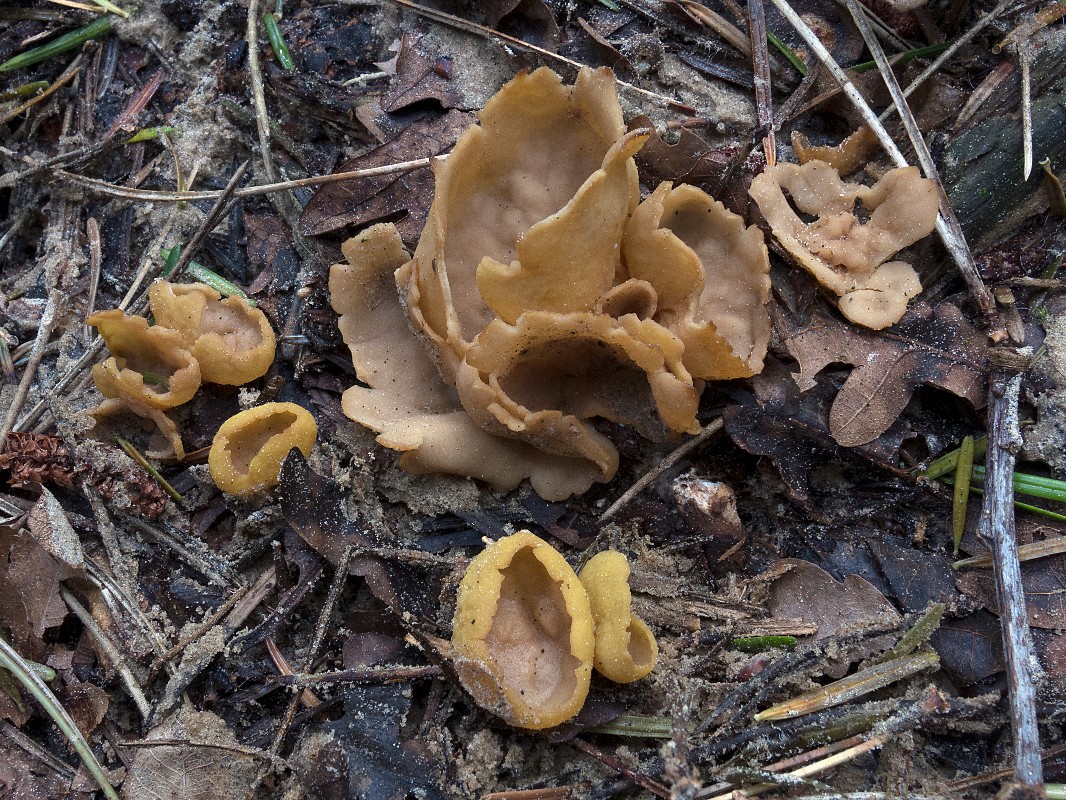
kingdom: Fungi
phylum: Ascomycota
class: Pezizomycetes
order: Pezizales
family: Otideaceae
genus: Otidea
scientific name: Otidea phlebophora
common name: året ørebæger
